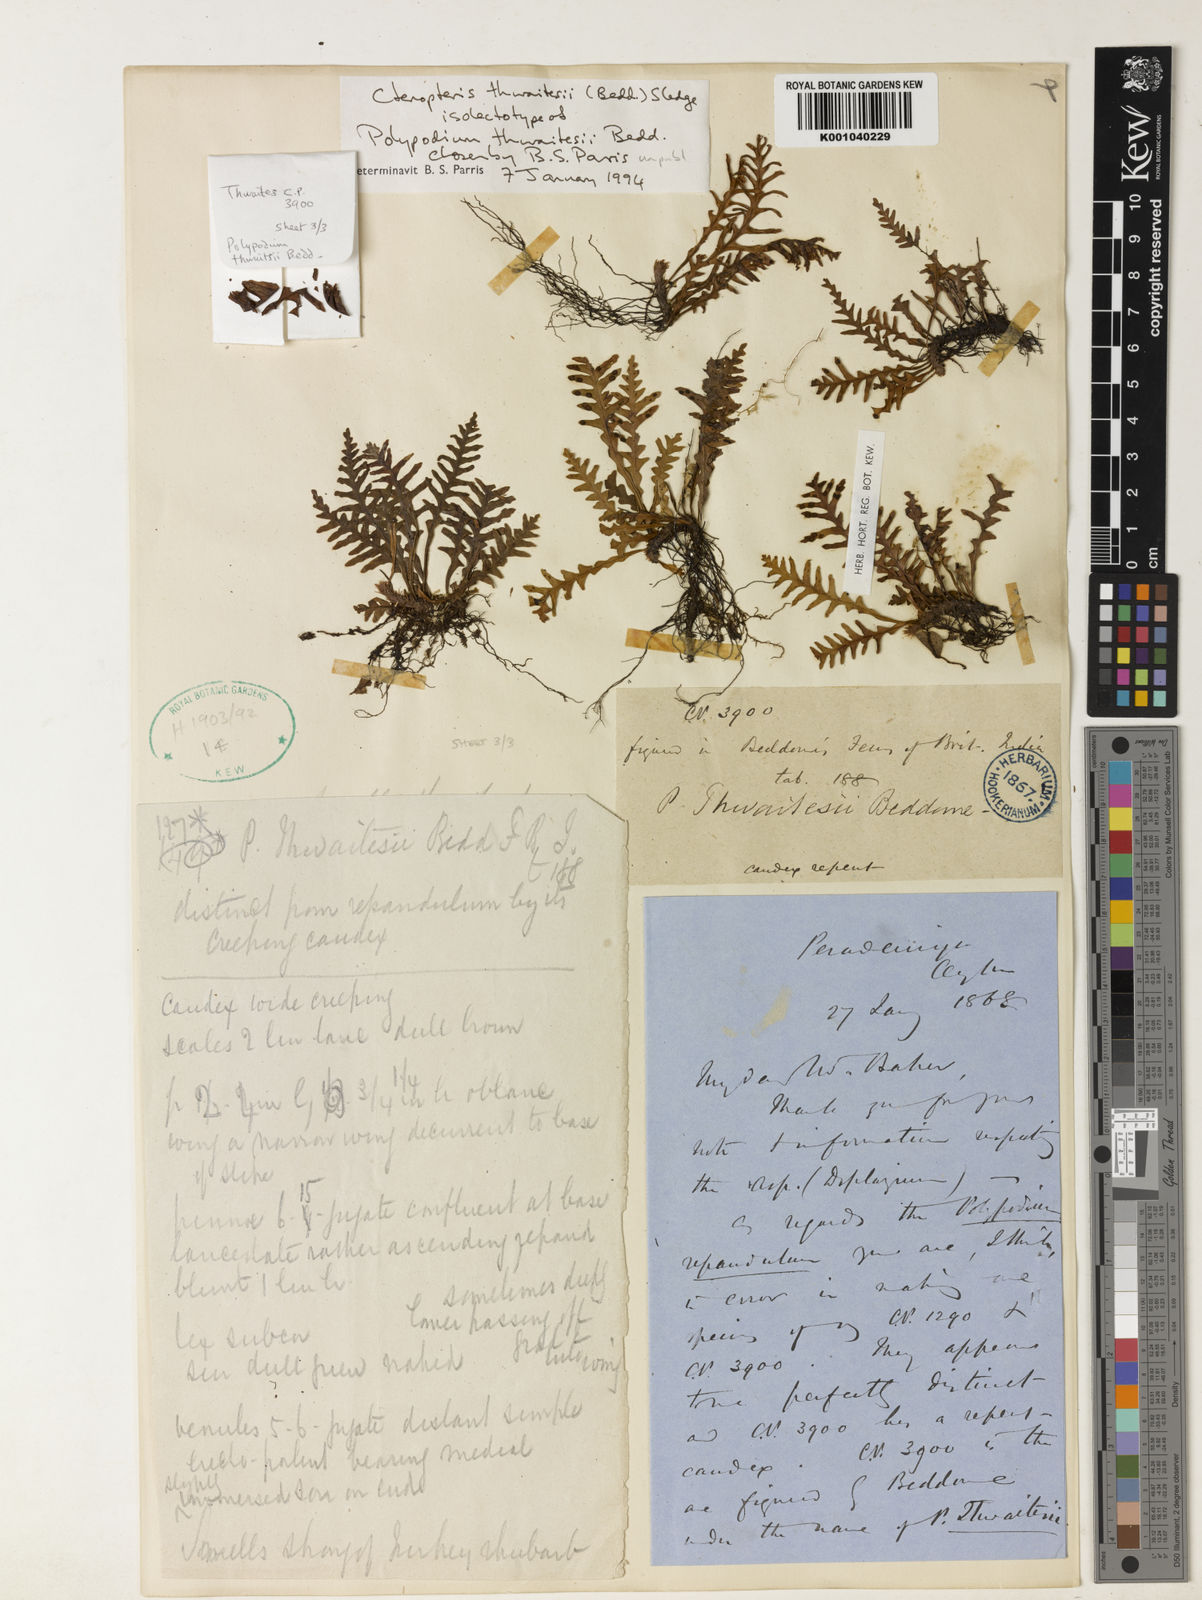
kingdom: Plantae
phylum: Tracheophyta
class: Polypodiopsida
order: Polypodiales
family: Polypodiaceae
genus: Ctenopterella
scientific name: Ctenopterella thwaitesii
